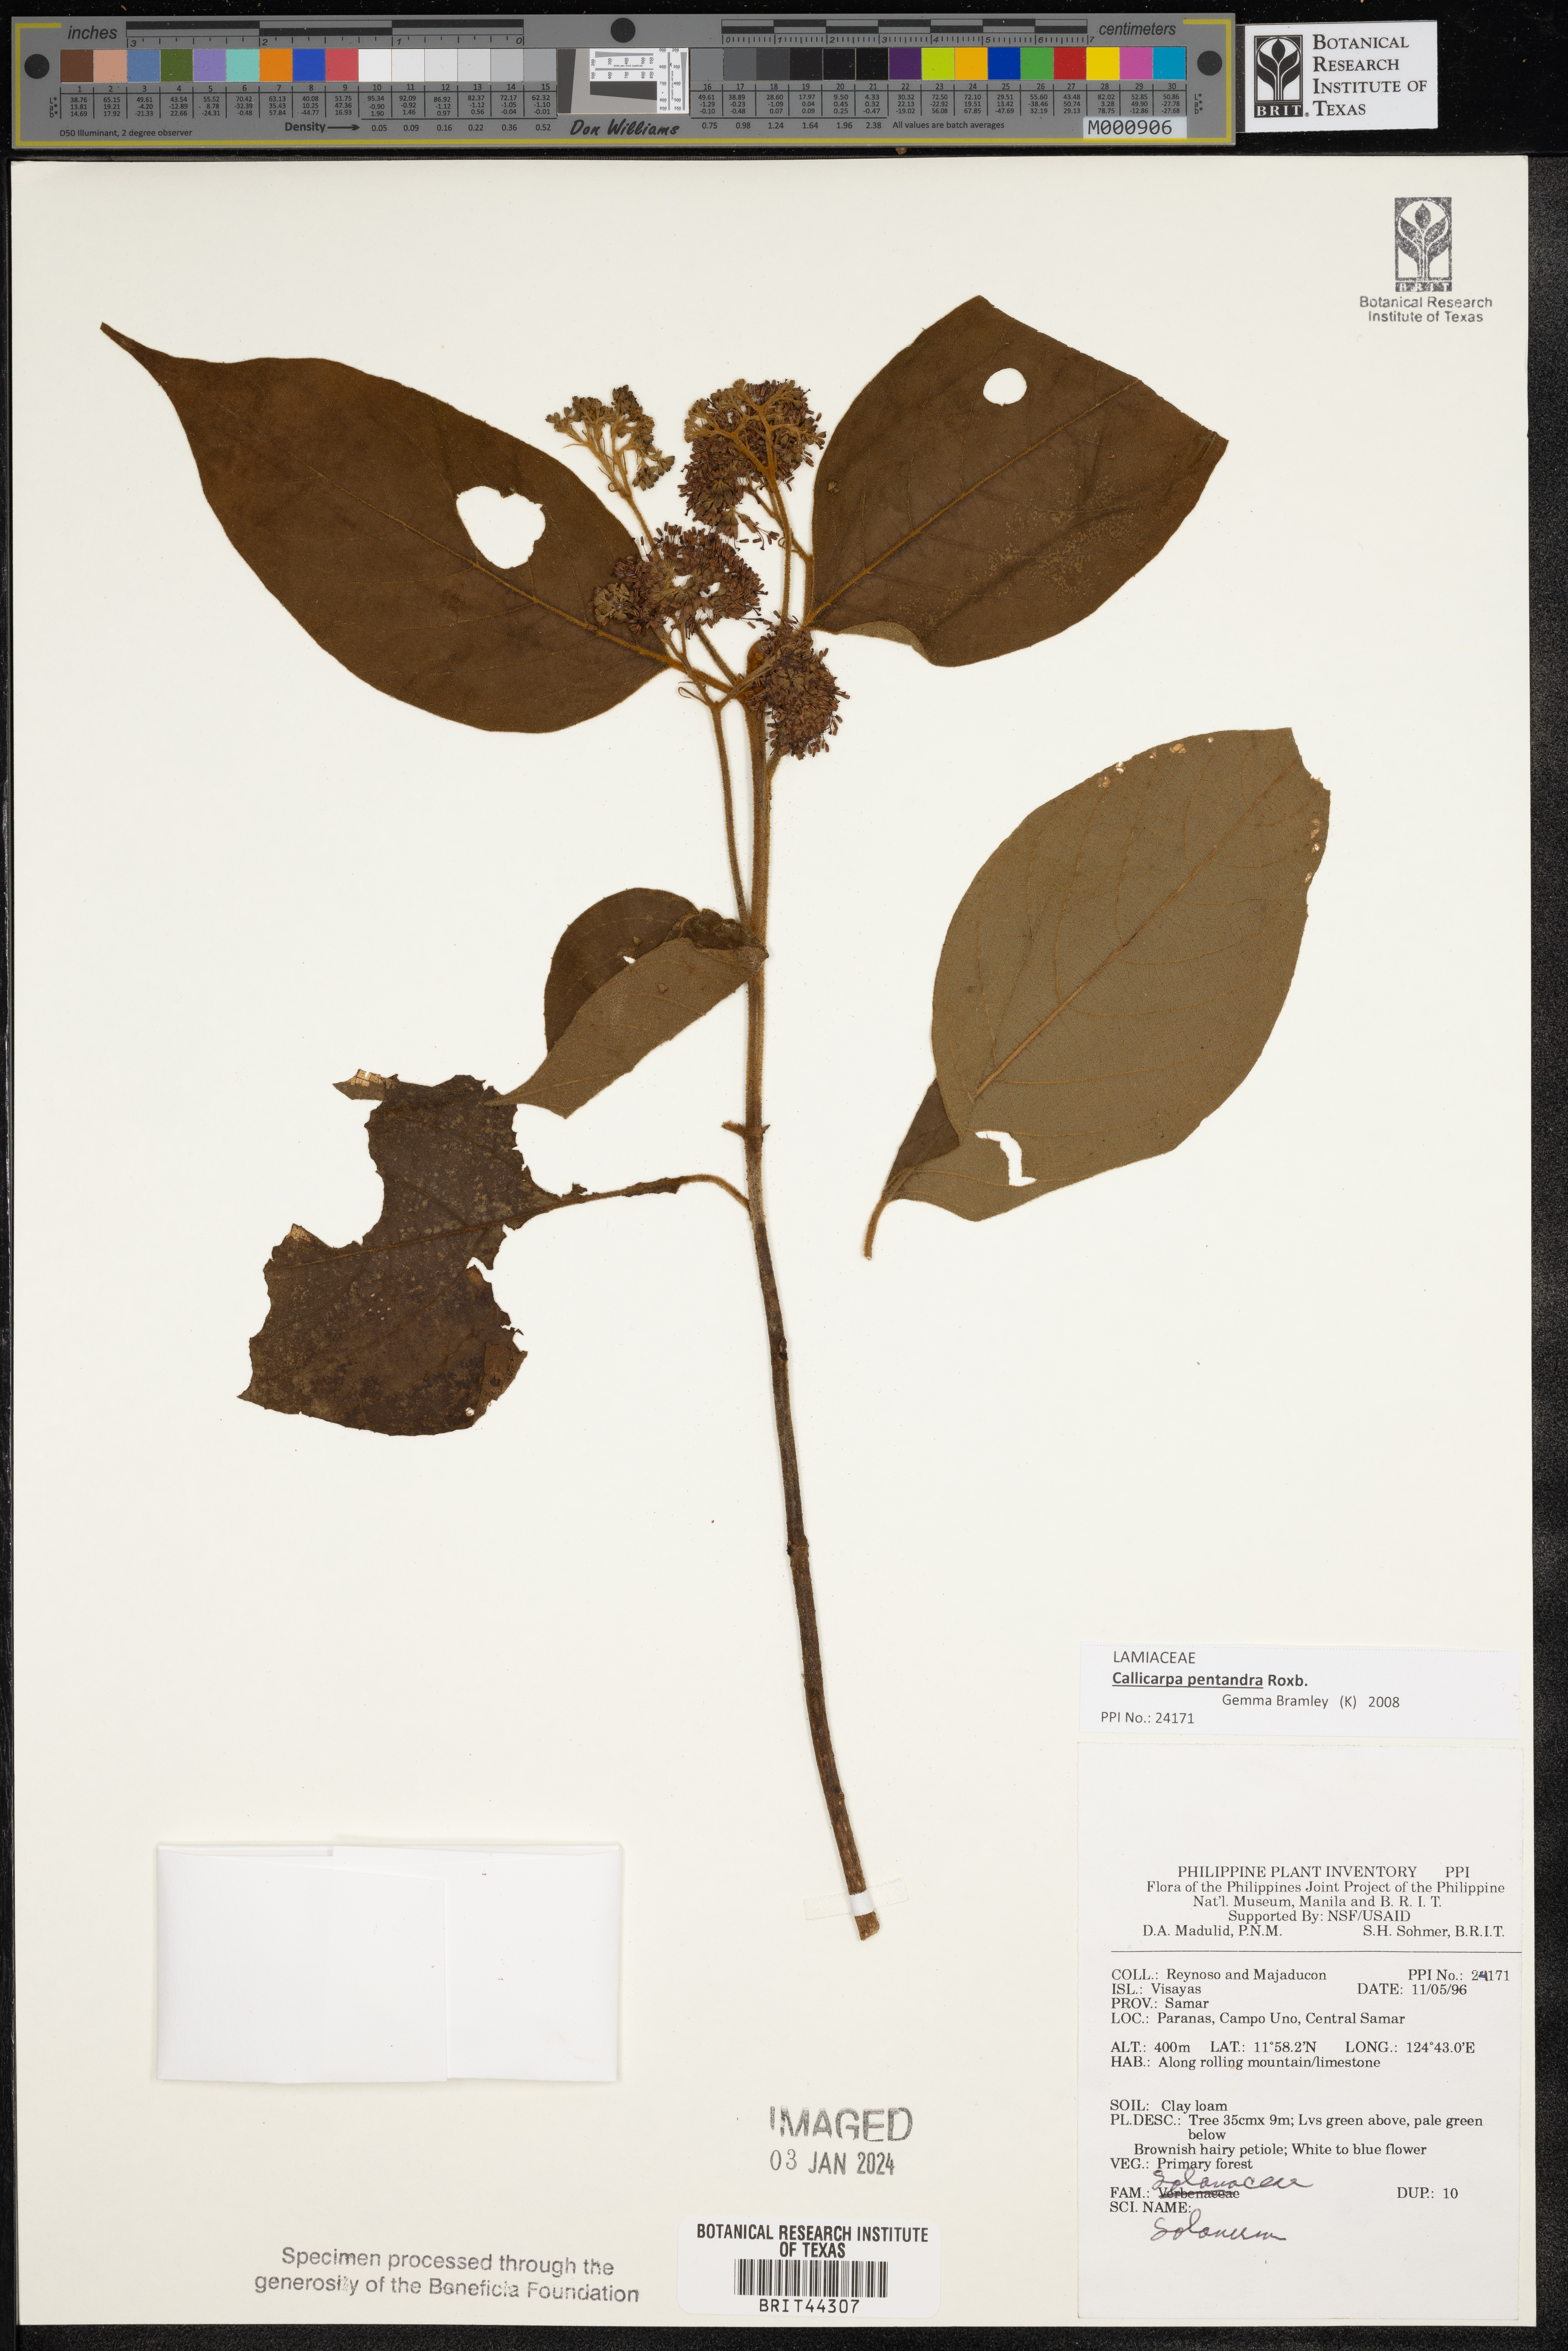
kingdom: Plantae
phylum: Tracheophyta
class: Magnoliopsida
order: Solanales
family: Solanaceae
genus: Solanum
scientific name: Solanum
